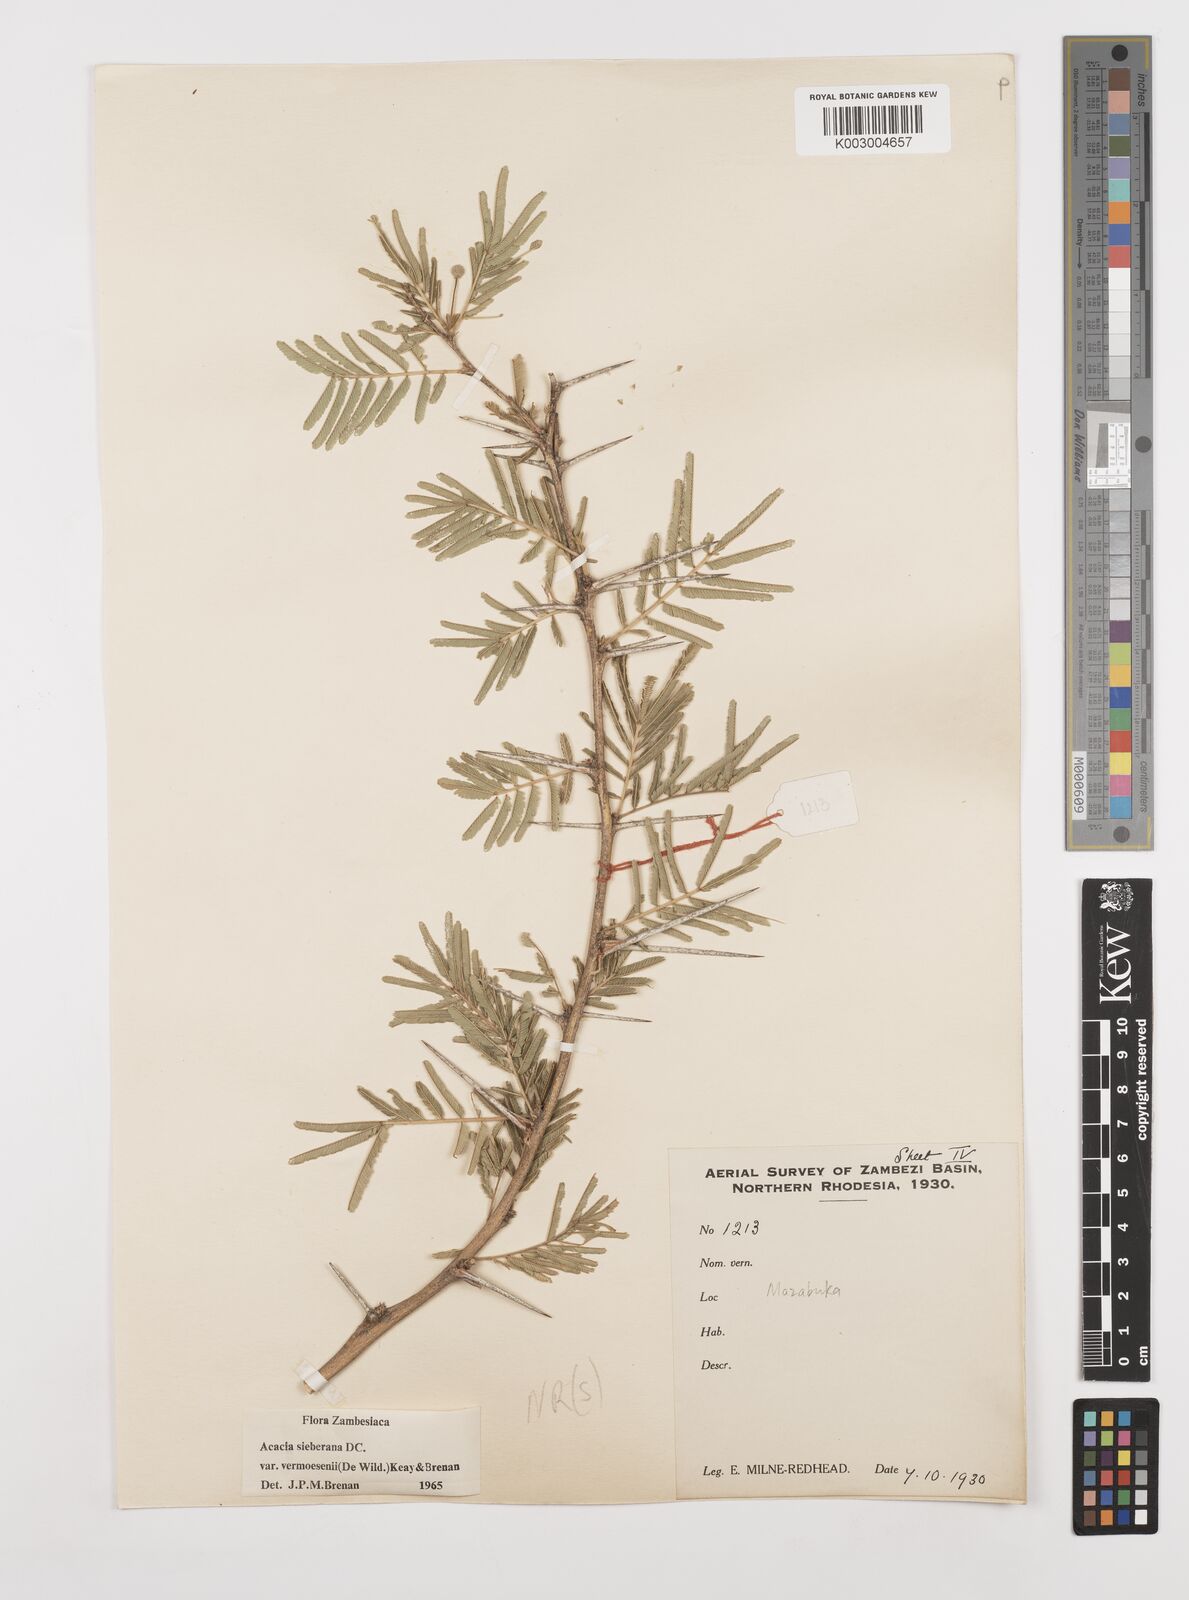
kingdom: Plantae
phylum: Tracheophyta
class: Magnoliopsida
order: Fabales
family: Fabaceae
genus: Vachellia
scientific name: Vachellia sieberiana
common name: Flat-topped thorn
